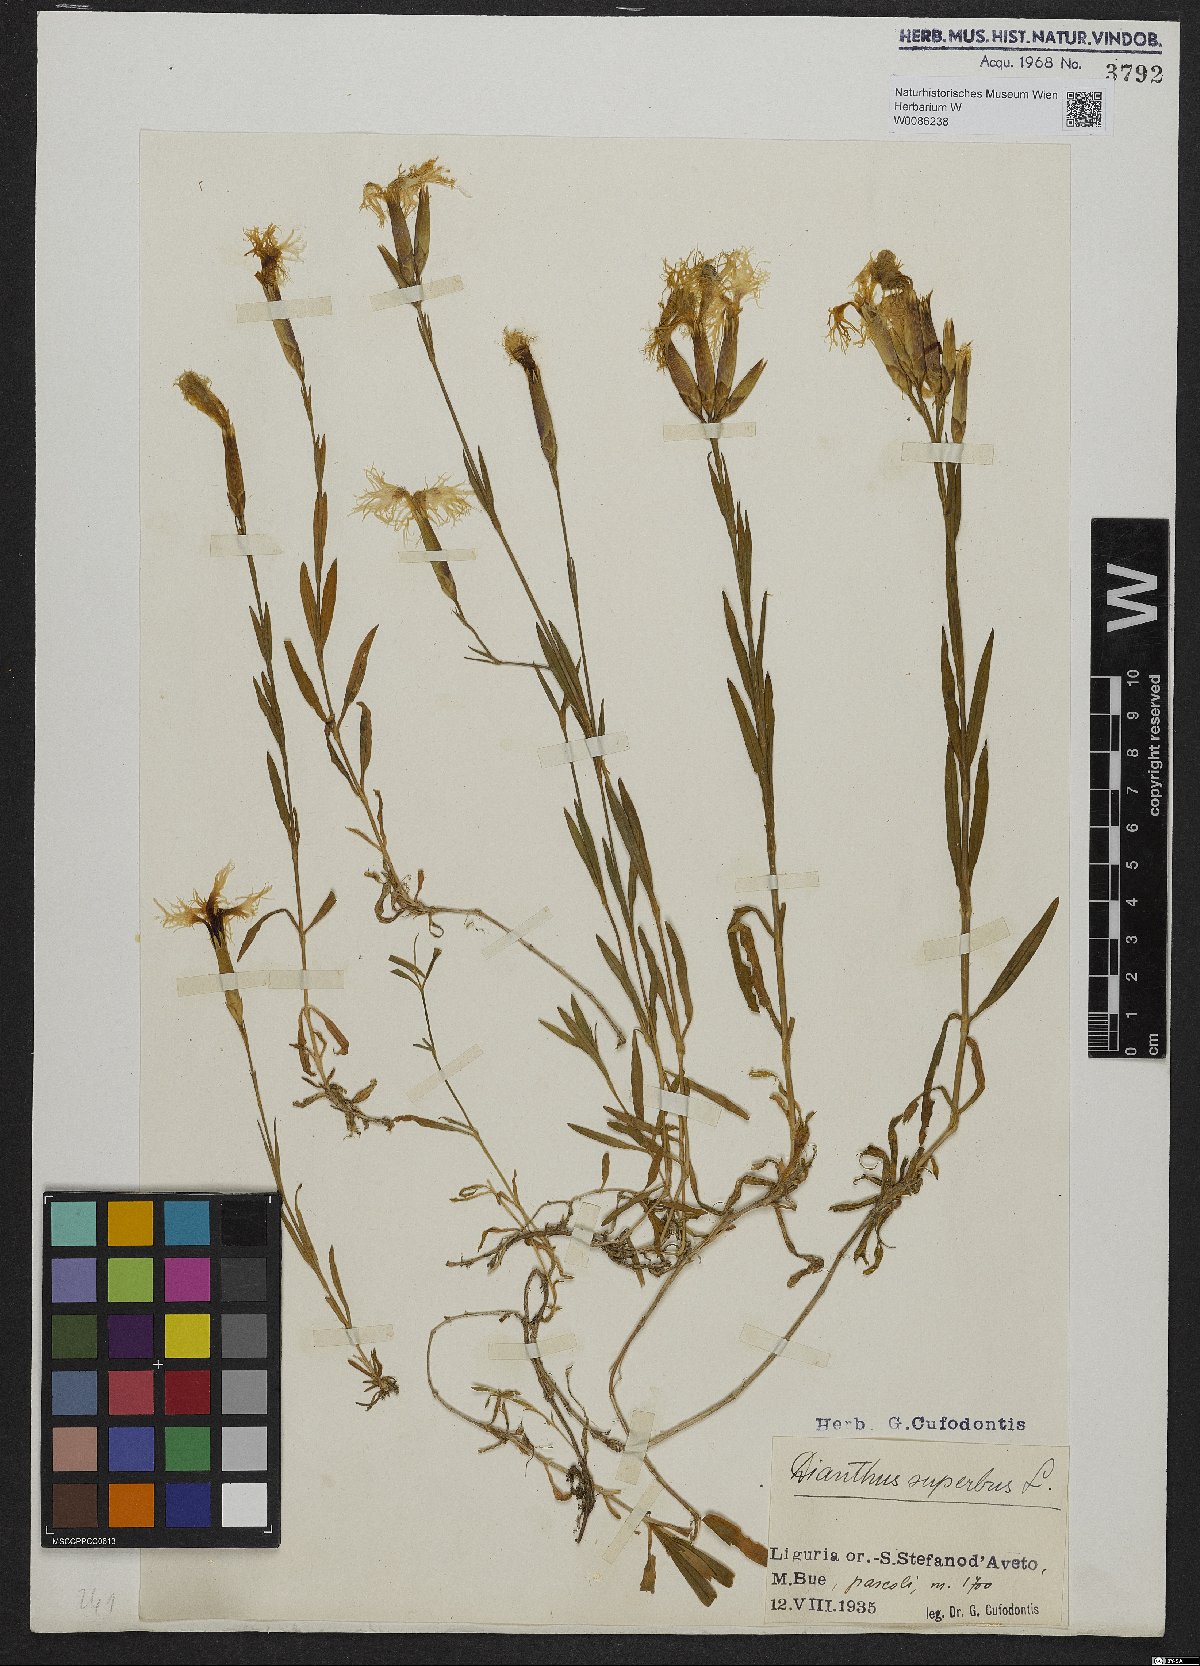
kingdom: Plantae
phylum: Tracheophyta
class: Magnoliopsida
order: Caryophyllales
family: Caryophyllaceae
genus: Dianthus
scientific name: Dianthus superbus
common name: Fringed pink
